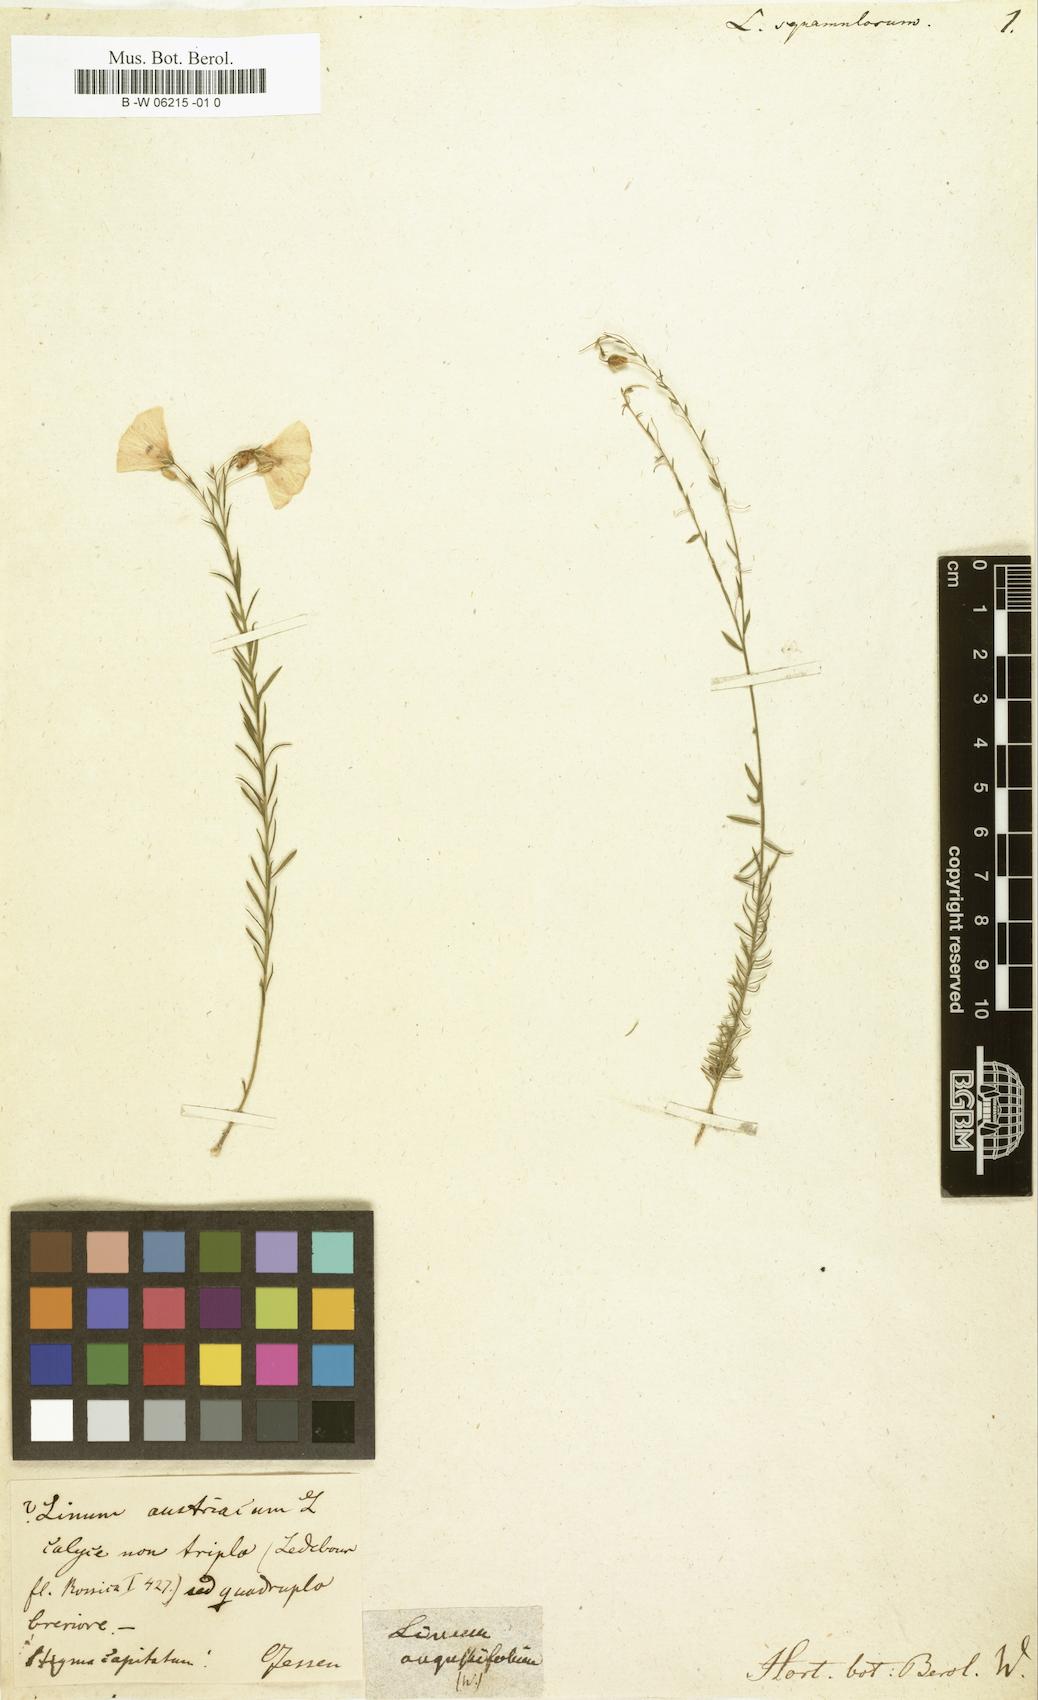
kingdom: Plantae
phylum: Tracheophyta
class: Magnoliopsida
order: Malpighiales
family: Linaceae
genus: Linum
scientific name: Linum austriacum
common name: Austrian flax
